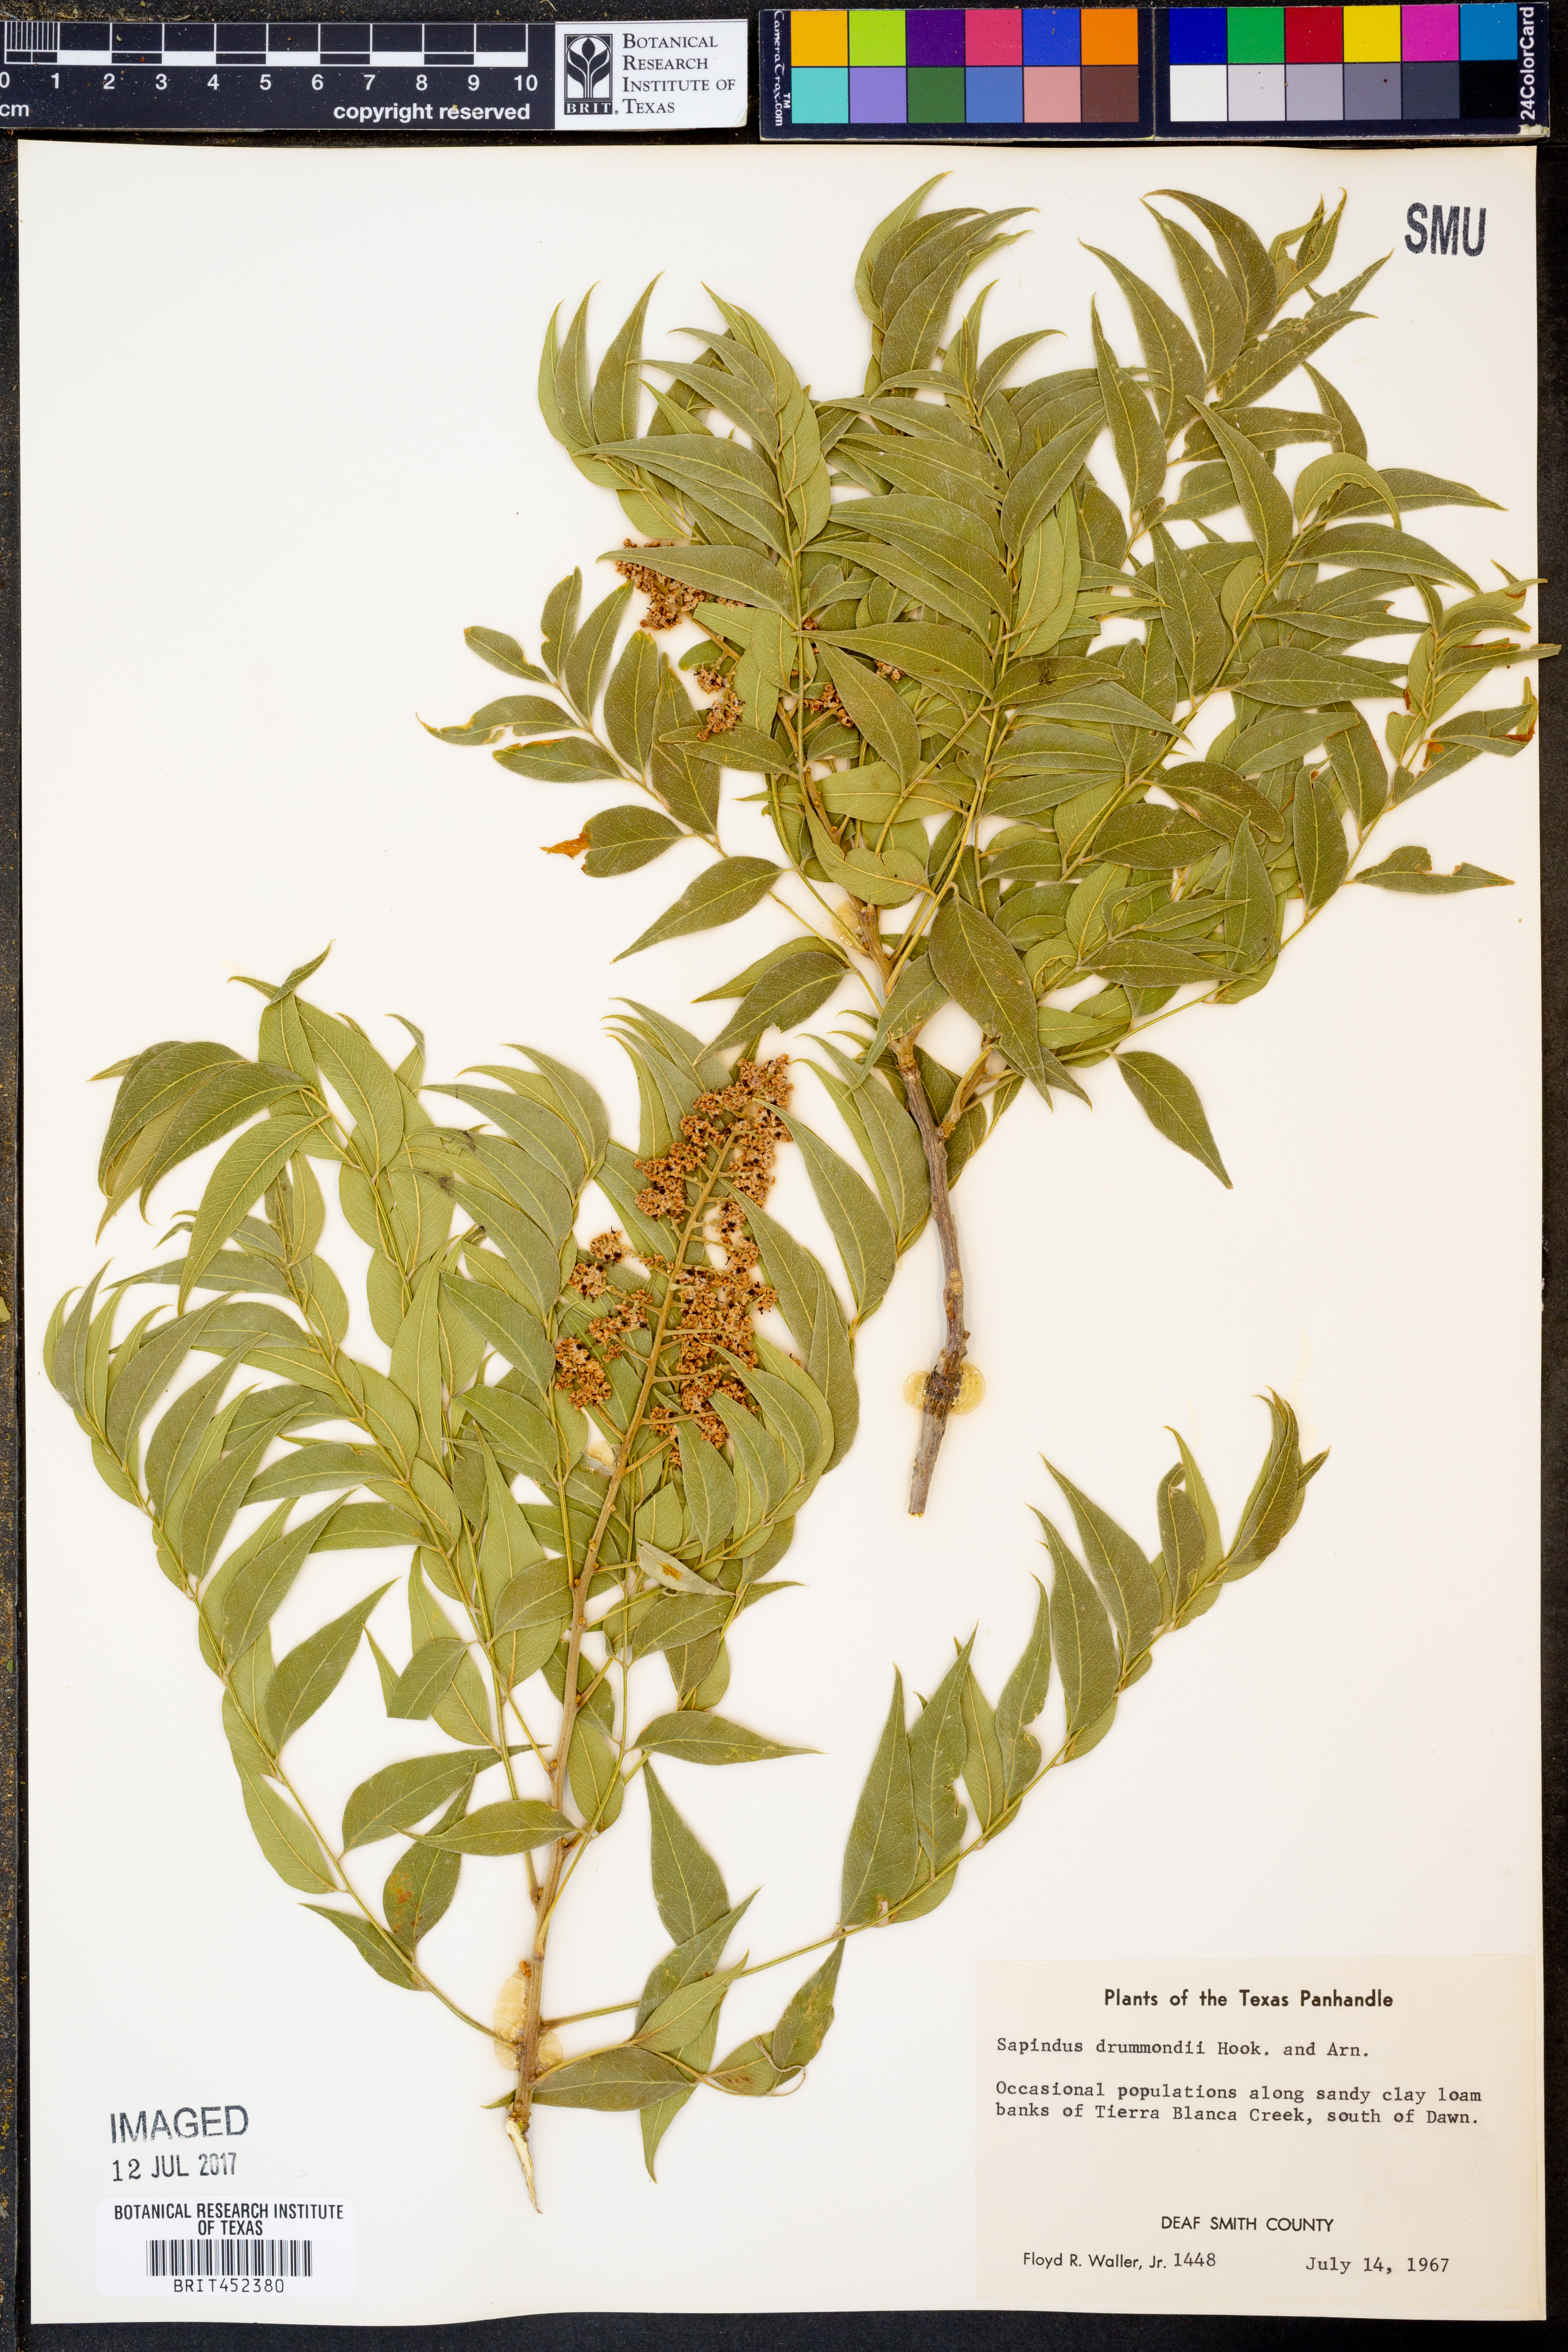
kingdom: Plantae
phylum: Tracheophyta
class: Magnoliopsida
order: Sapindales
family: Sapindaceae
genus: Sapindus
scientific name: Sapindus drummondii
